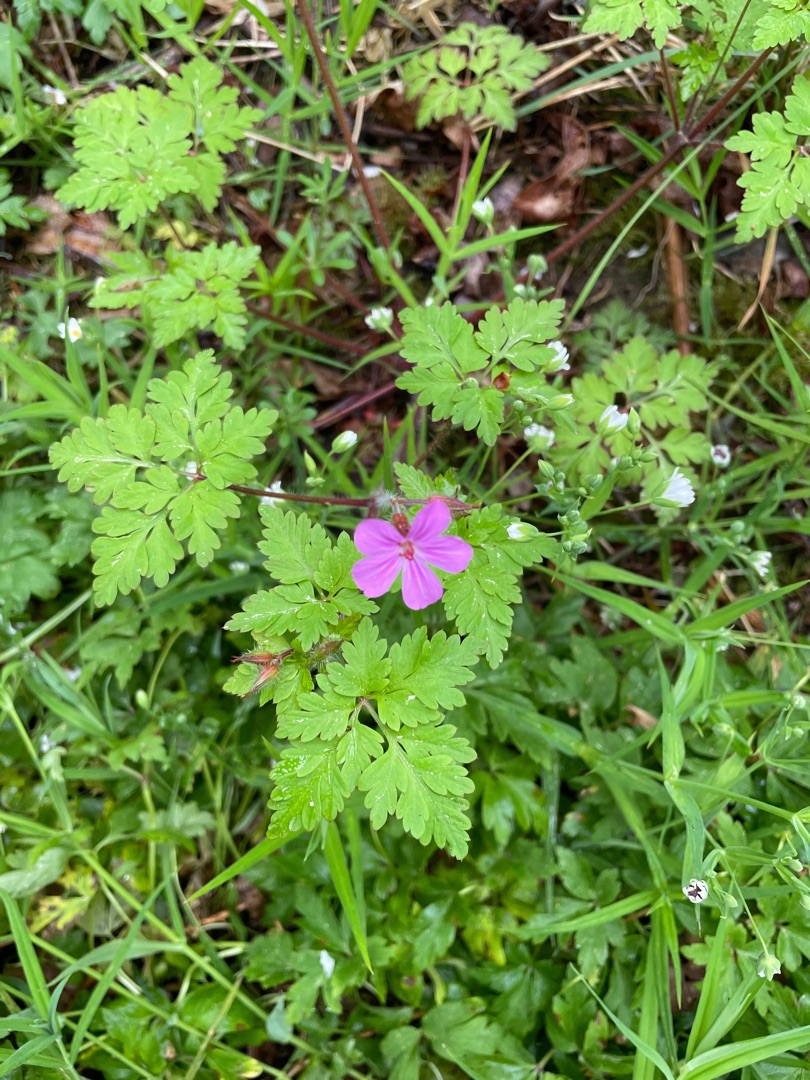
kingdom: Plantae
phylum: Tracheophyta
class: Magnoliopsida
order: Geraniales
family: Geraniaceae
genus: Geranium
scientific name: Geranium robertianum
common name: Stinkende storkenæb
